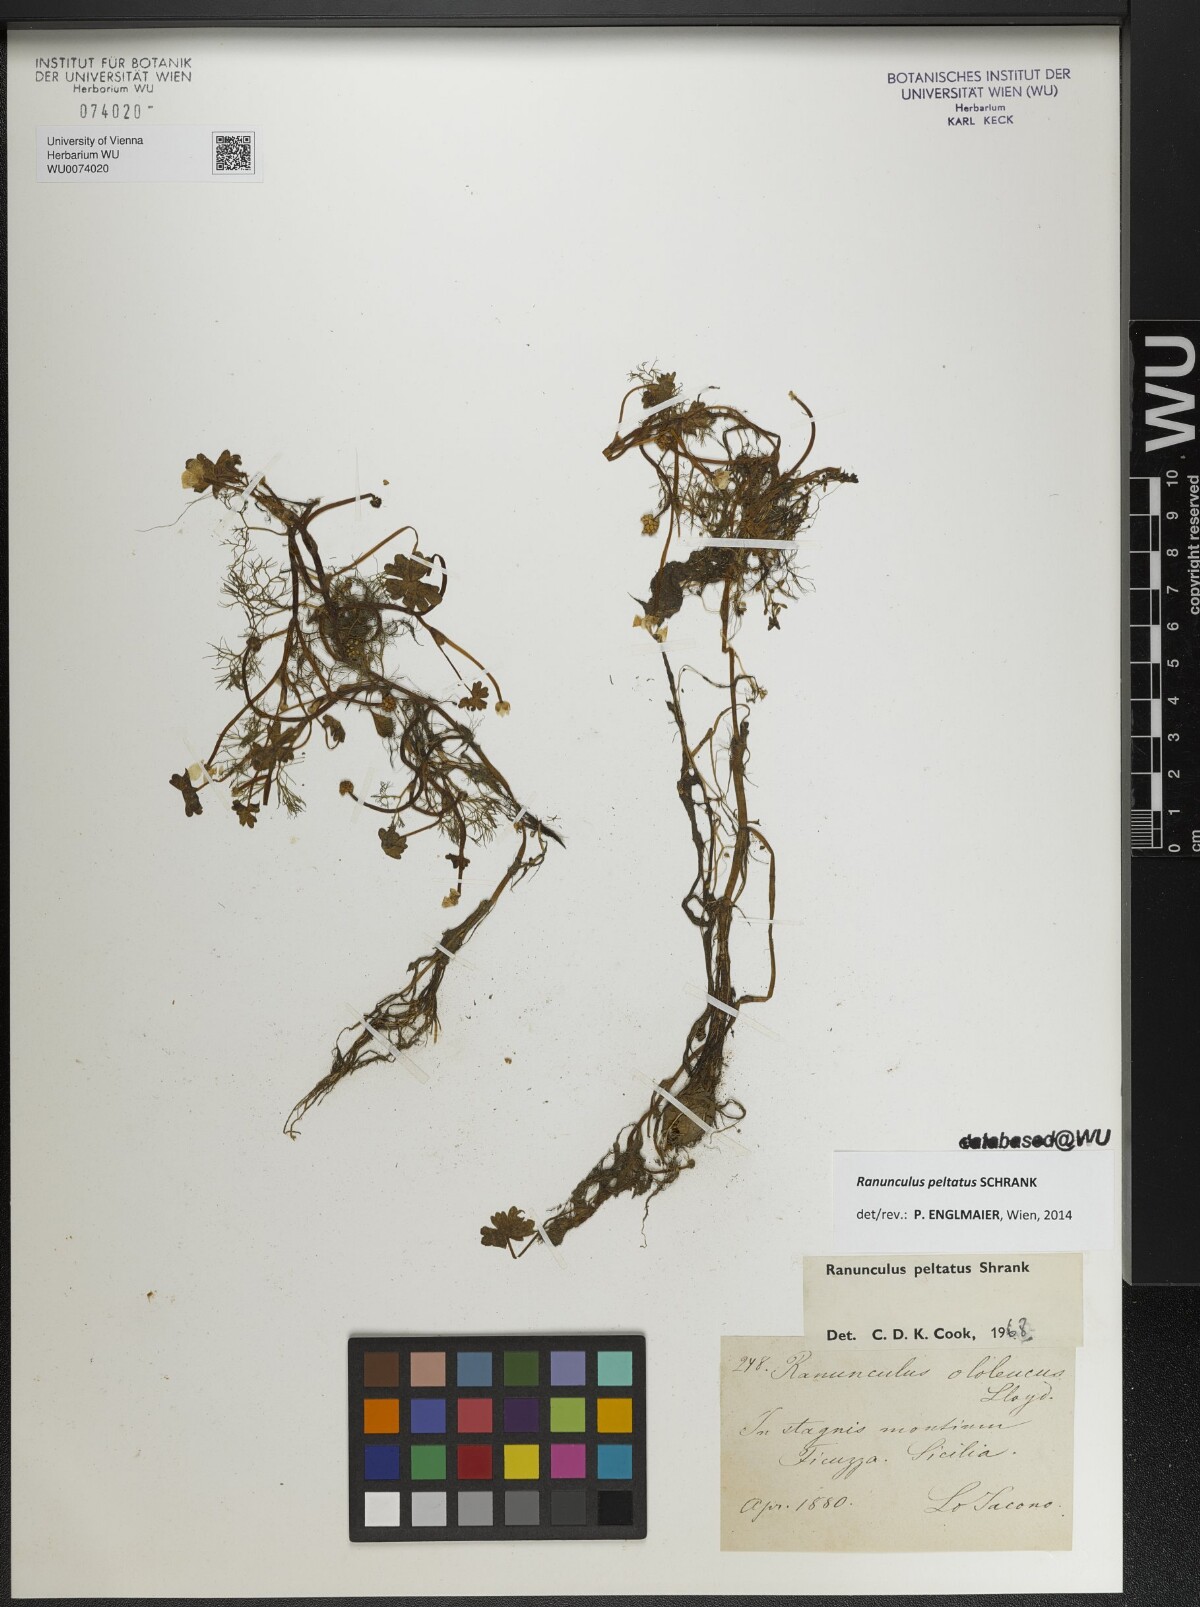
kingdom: Plantae
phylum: Tracheophyta
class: Magnoliopsida
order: Ranunculales
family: Ranunculaceae
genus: Ranunculus
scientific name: Ranunculus peltatus
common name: Pond water-crowfoot
